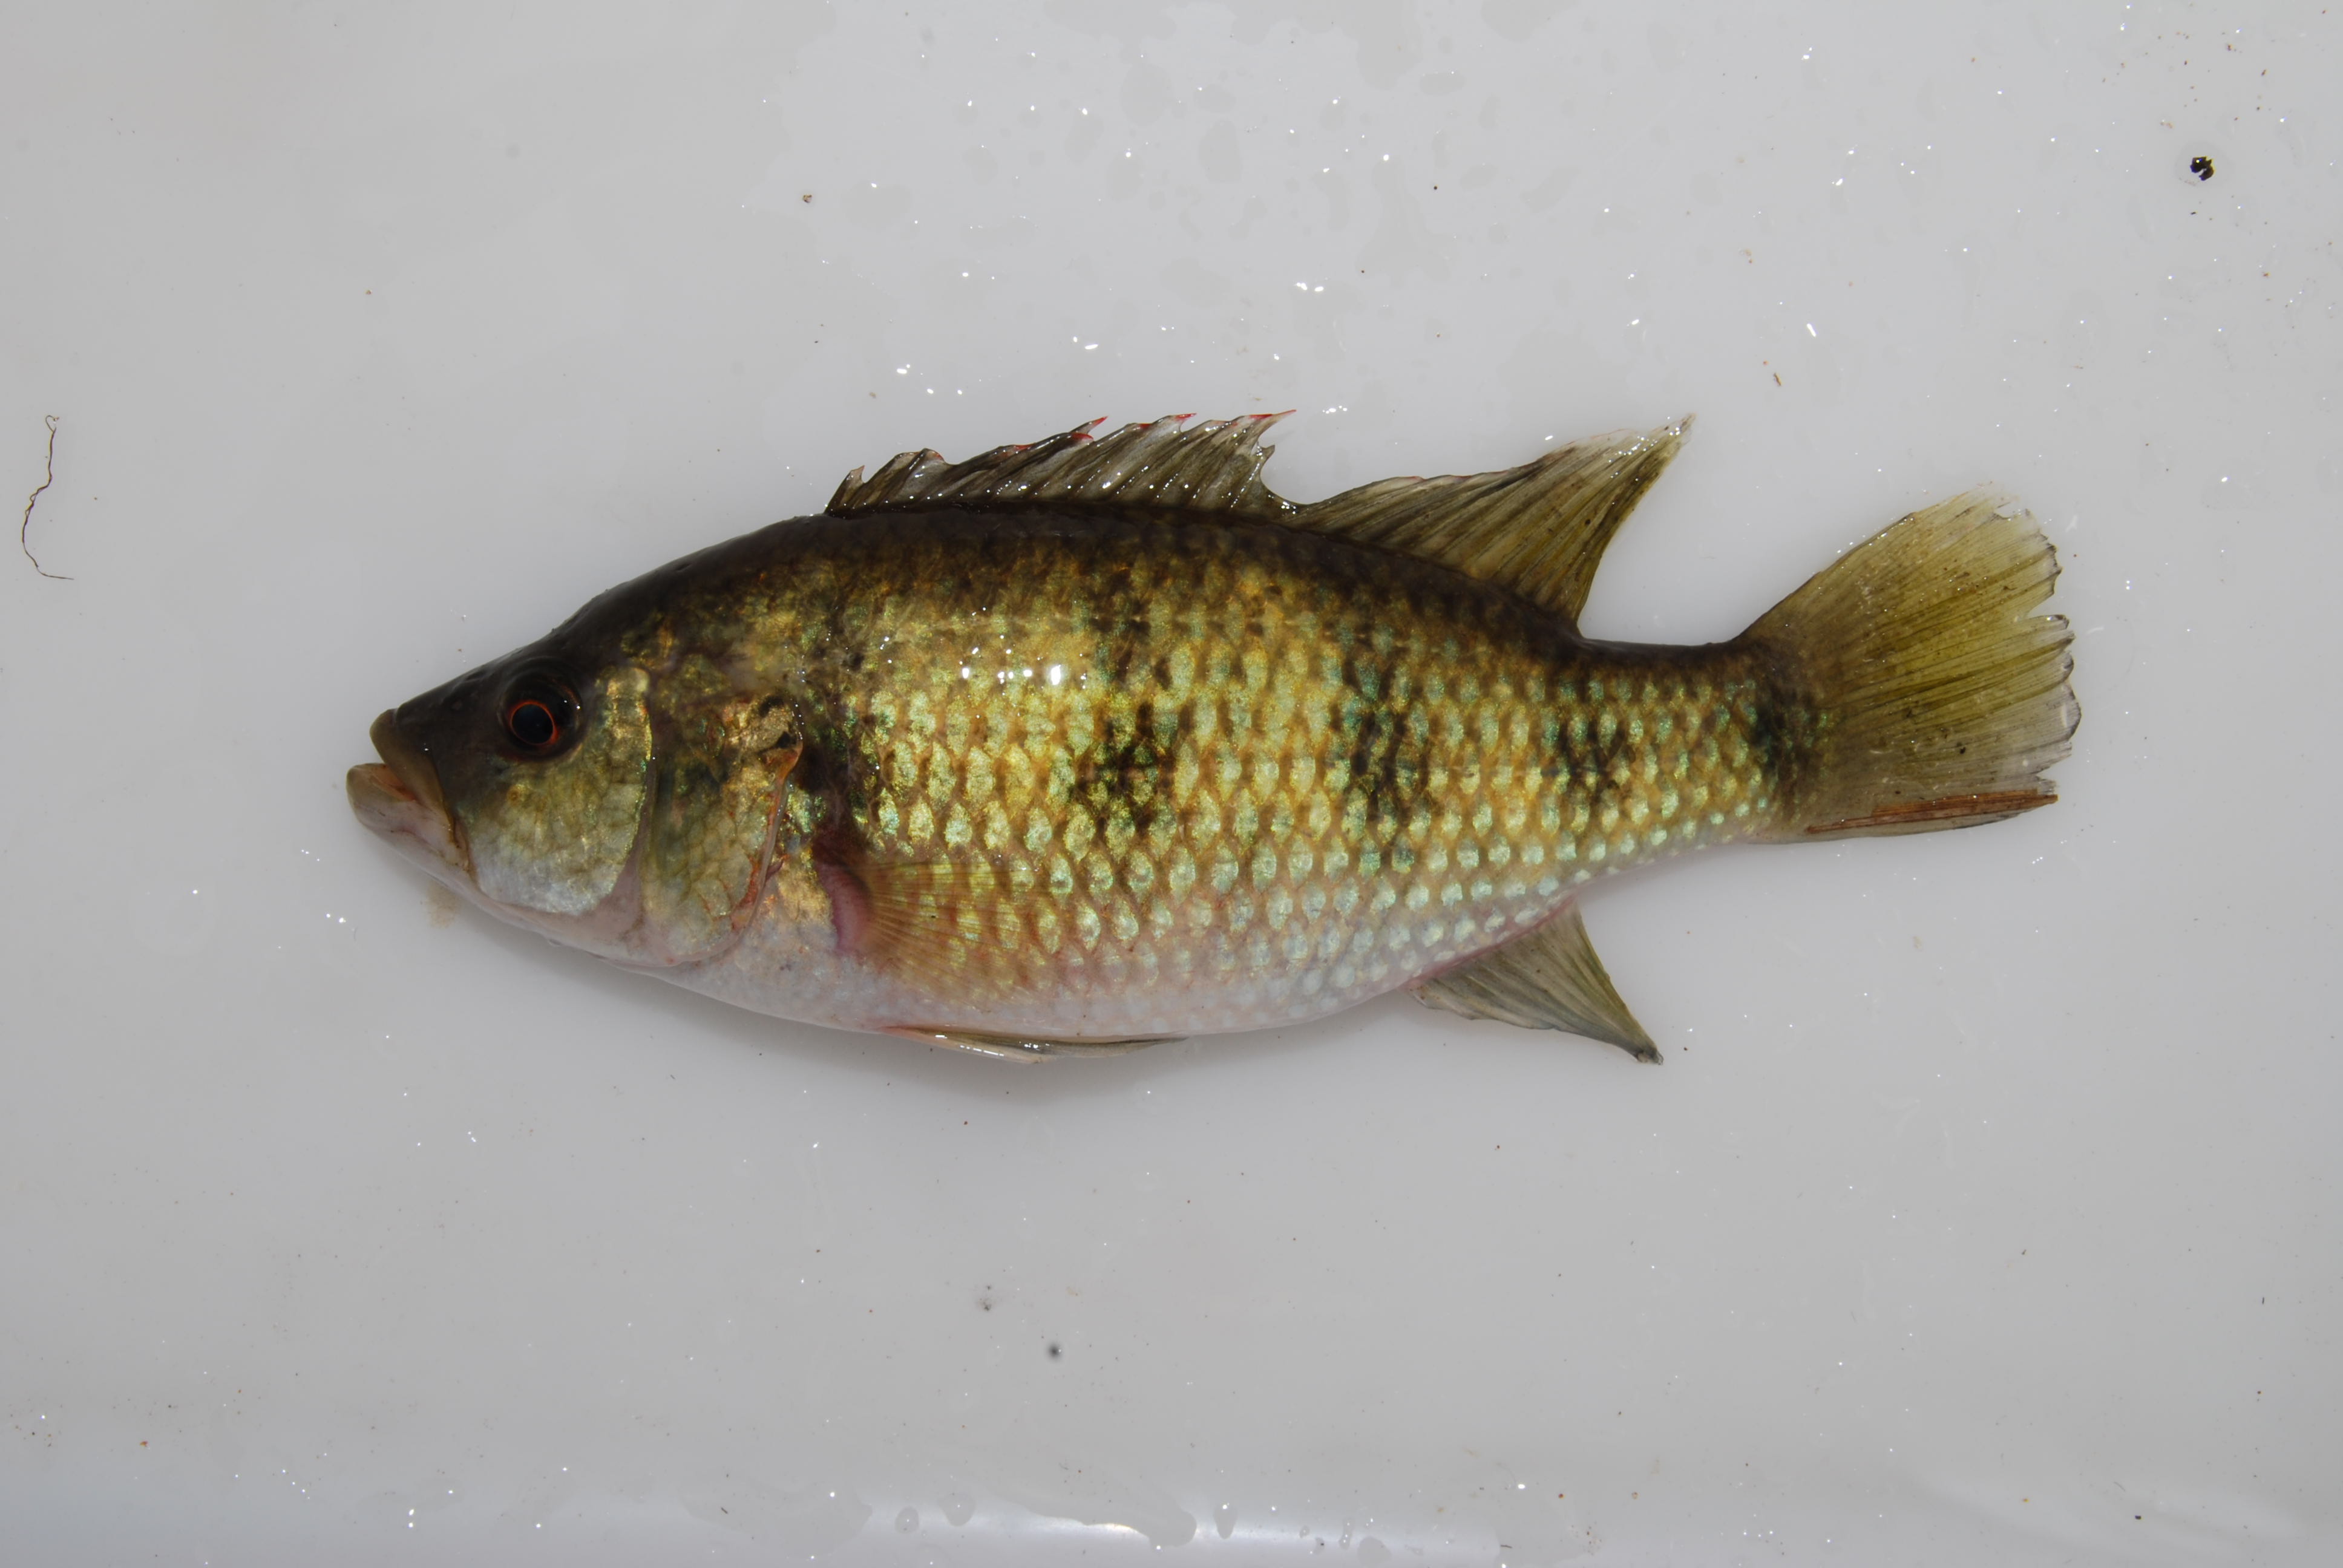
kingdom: Animalia
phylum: Chordata
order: Perciformes
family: Cichlidae
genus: Hemichromis
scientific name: Hemichromis
